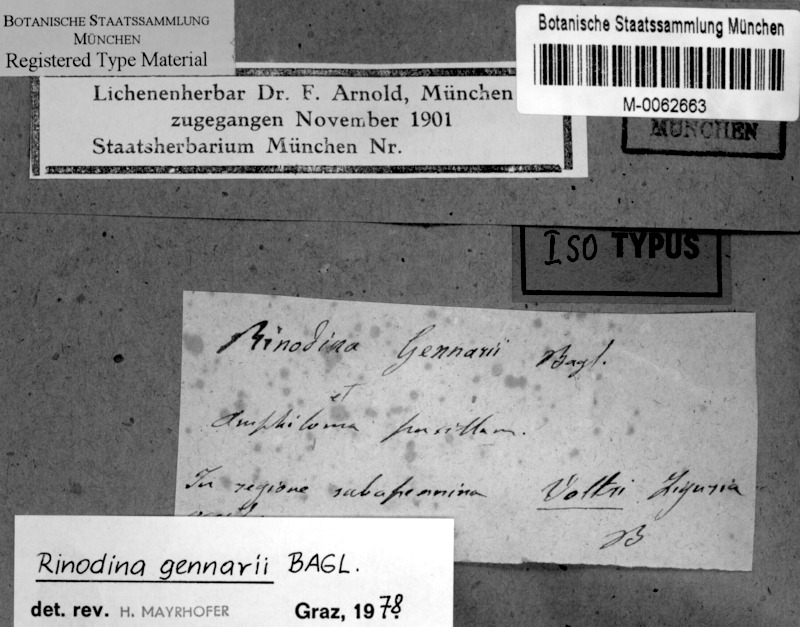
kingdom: Fungi
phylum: Ascomycota
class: Lecanoromycetes
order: Caliciales
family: Physciaceae
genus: Rinodina
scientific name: Rinodina gennarii
